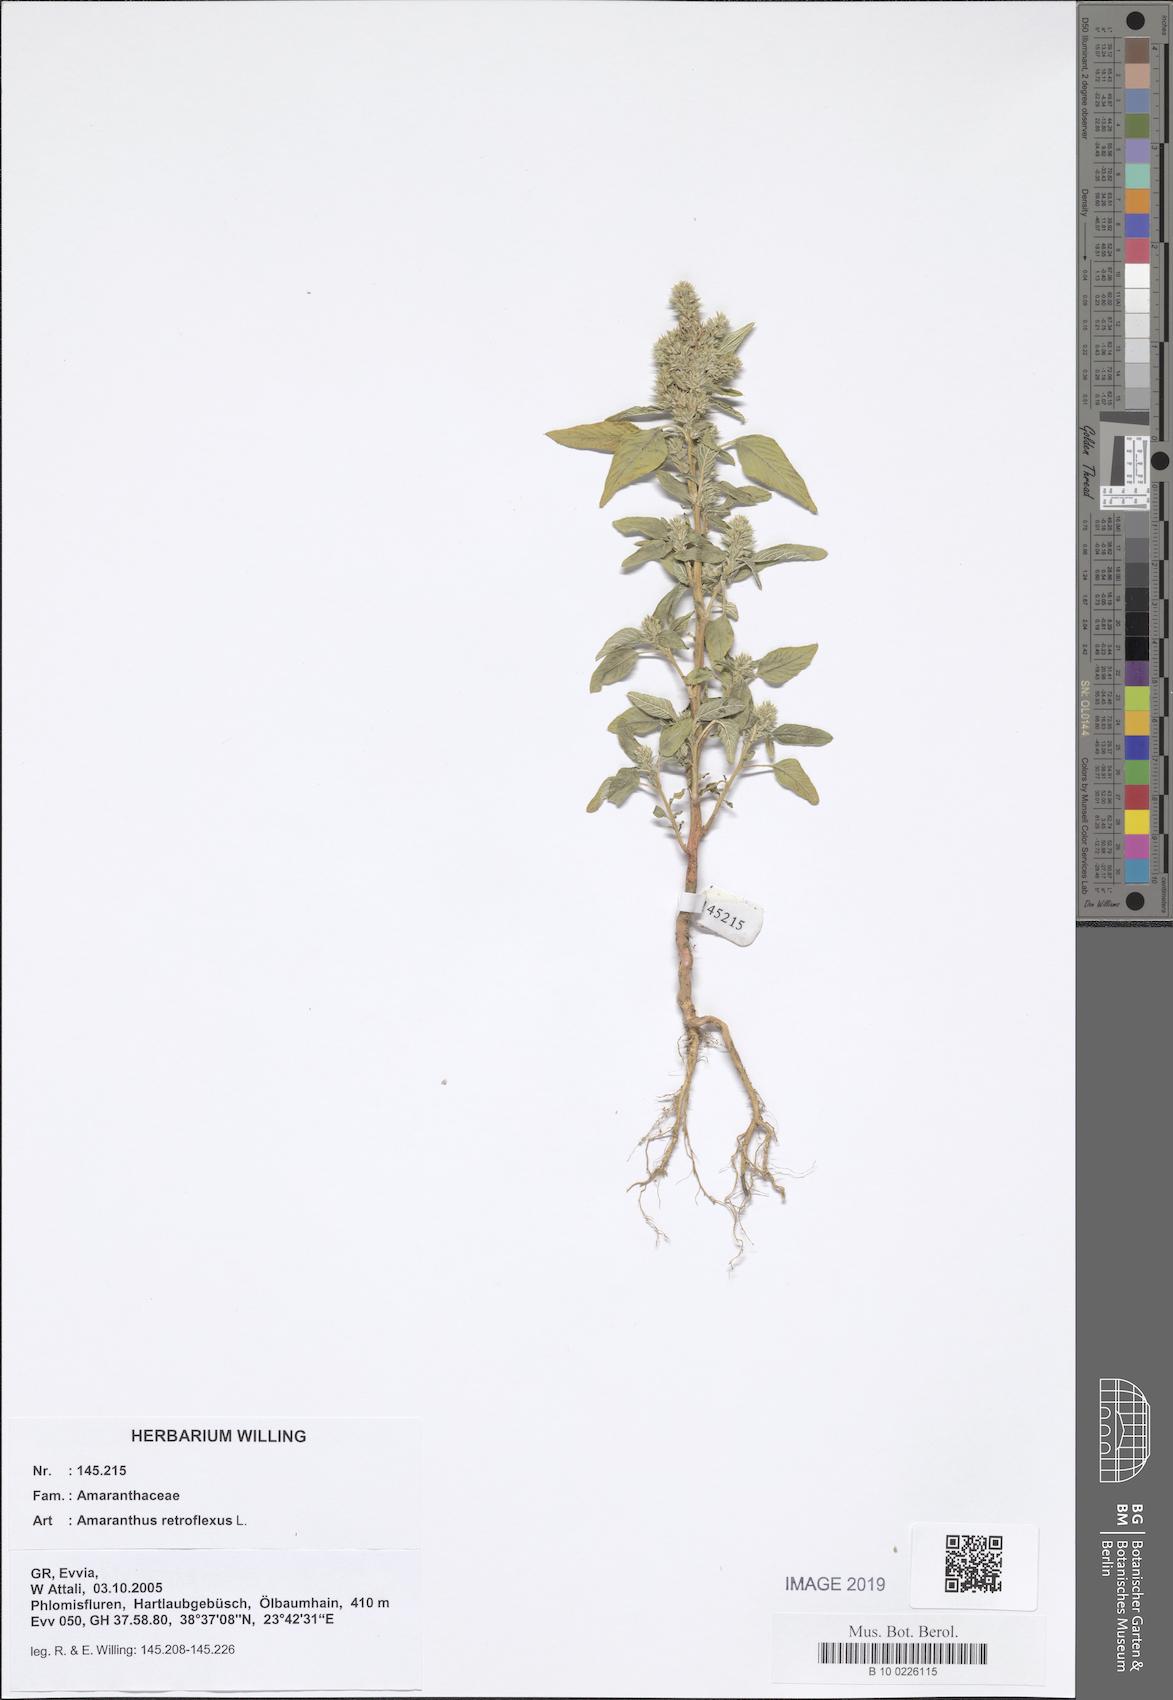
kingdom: Plantae
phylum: Tracheophyta
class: Magnoliopsida
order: Caryophyllales
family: Amaranthaceae
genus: Amaranthus
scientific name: Amaranthus retroflexus
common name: Redroot amaranth
